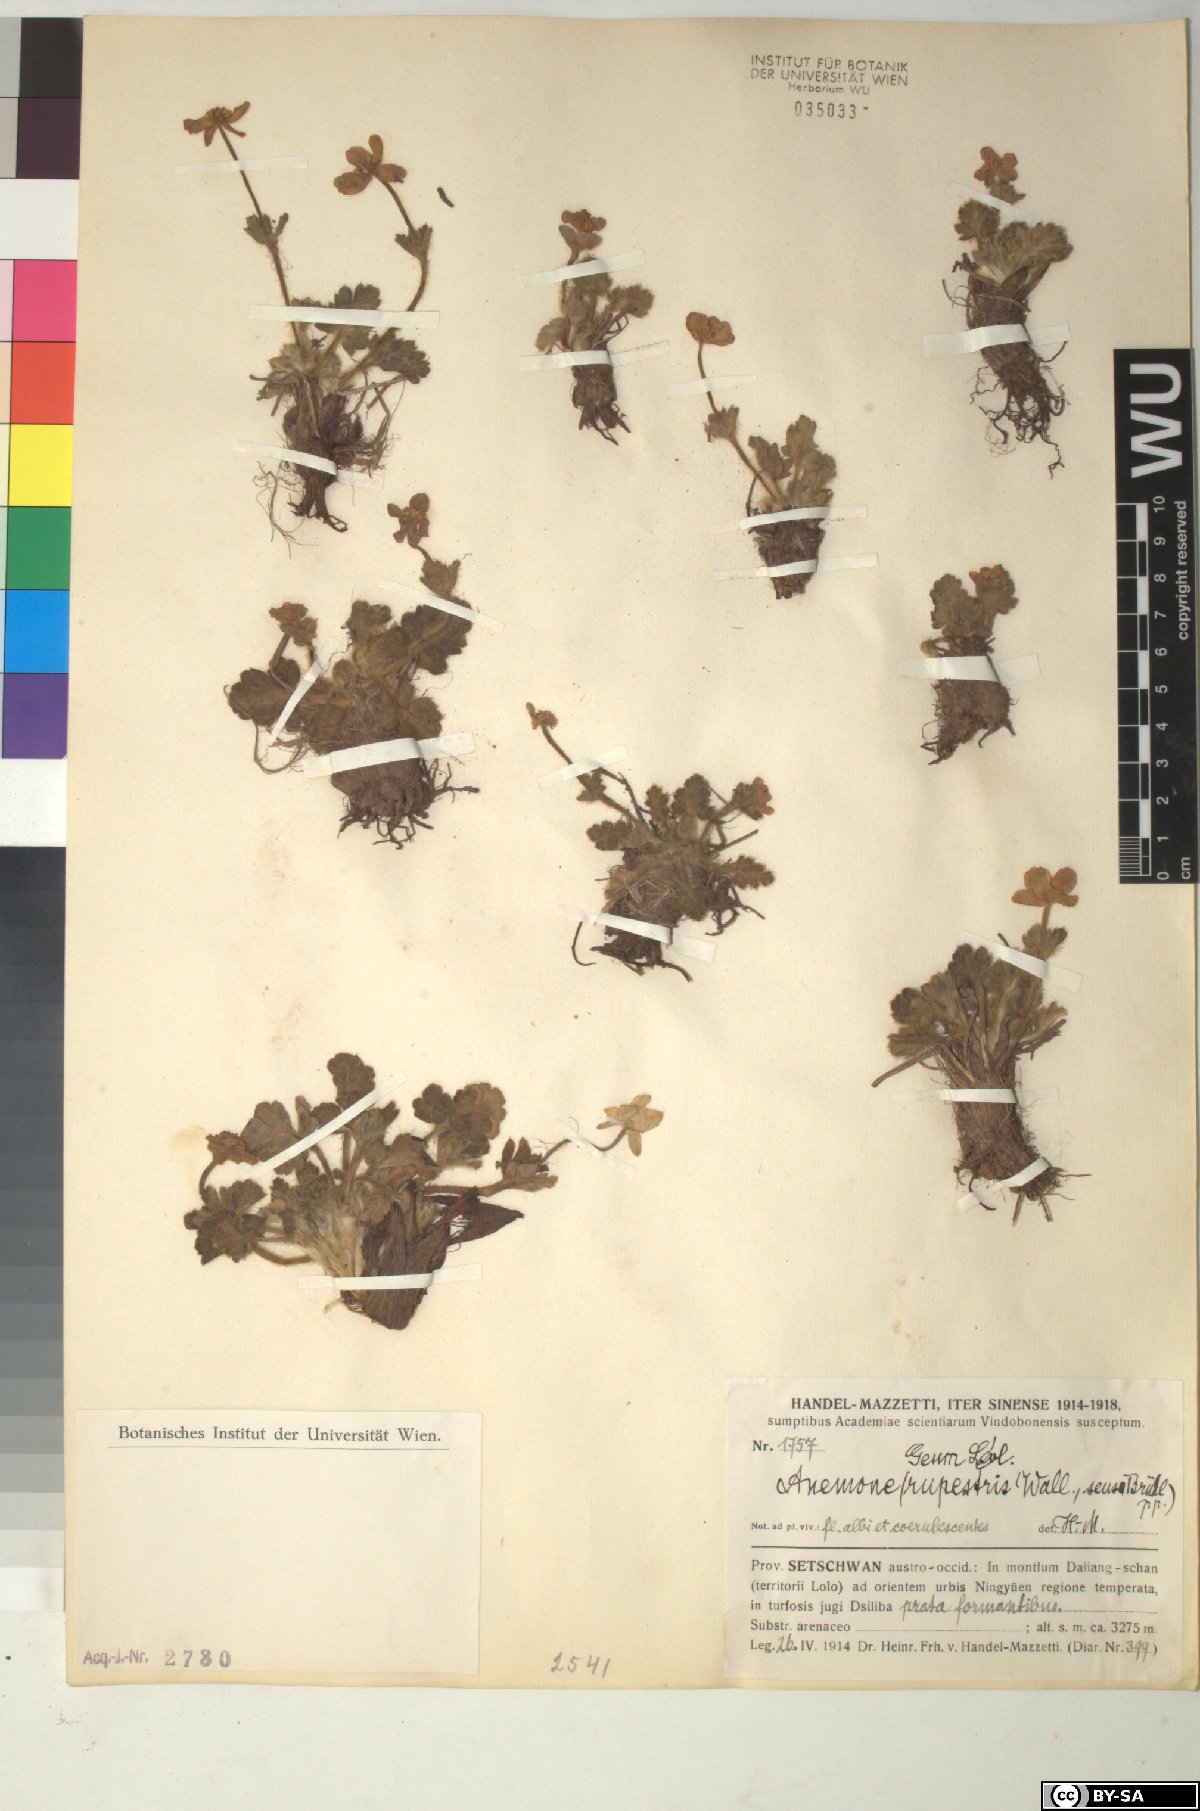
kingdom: Plantae
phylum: Tracheophyta
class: Magnoliopsida
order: Ranunculales
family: Ranunculaceae
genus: Anemonastrum
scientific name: Anemonastrum geum
